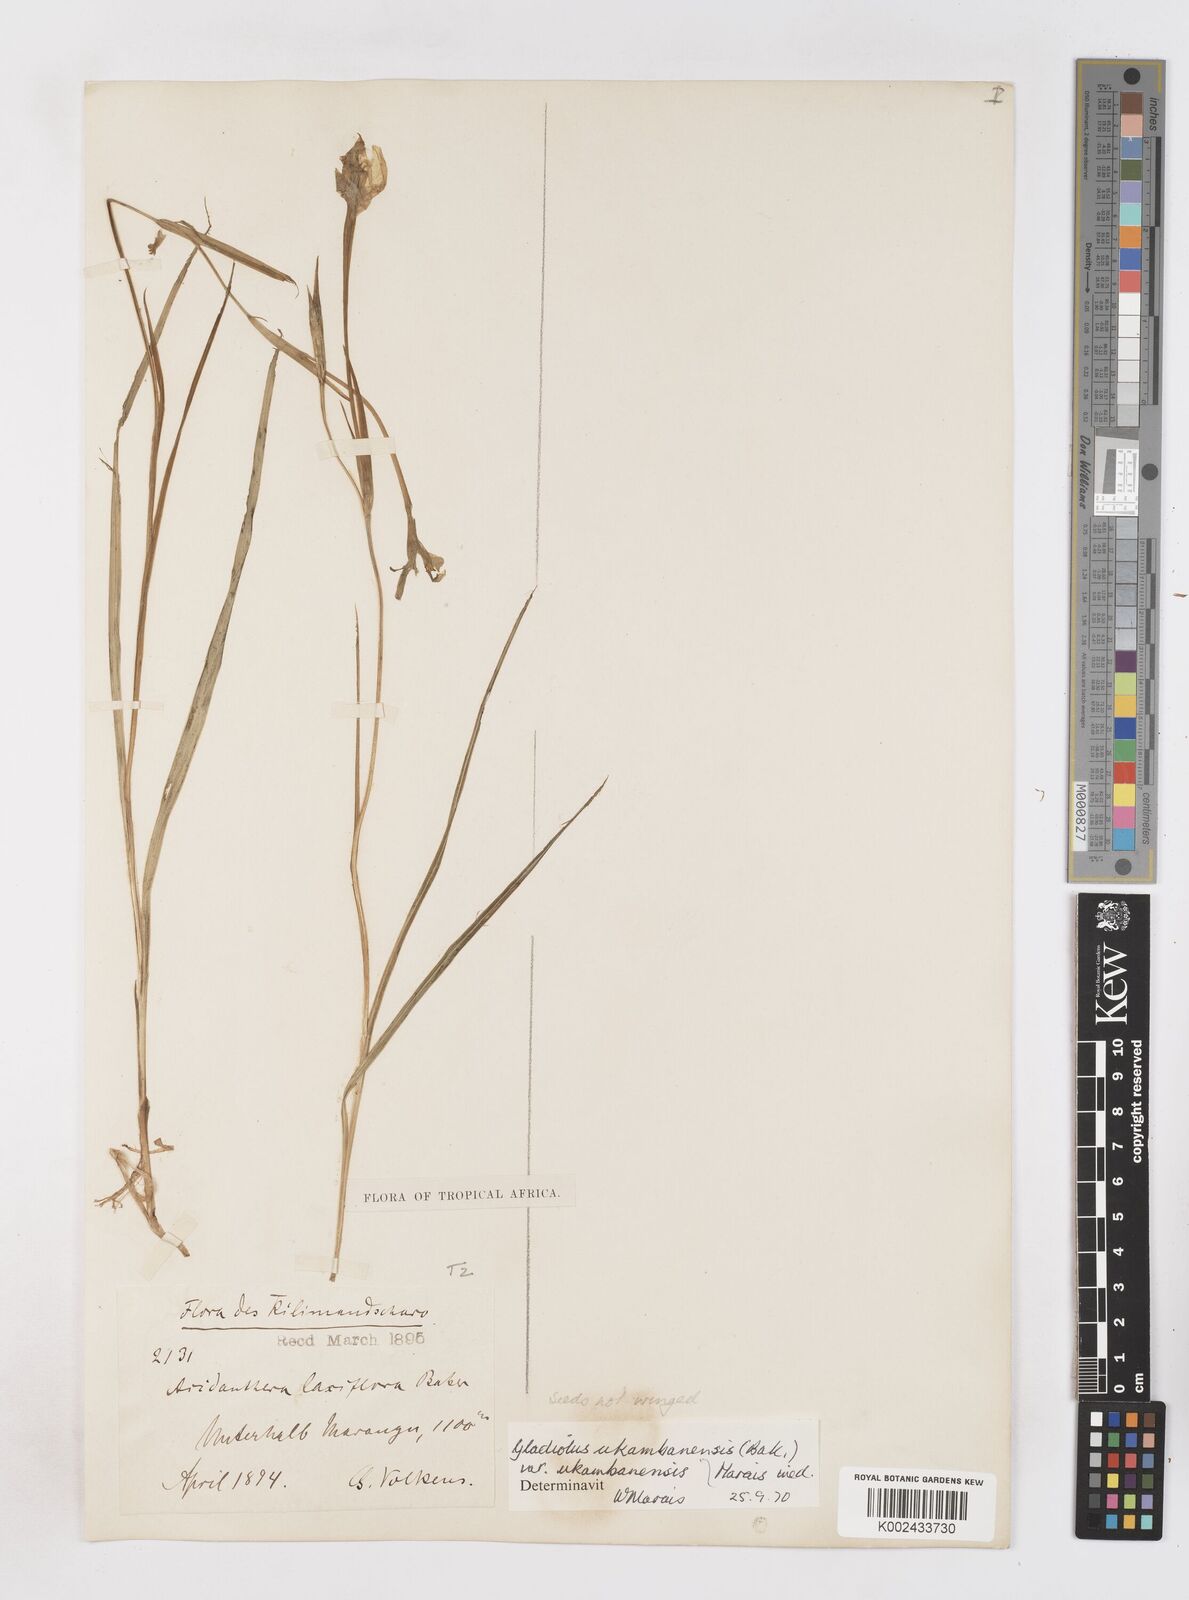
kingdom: Plantae
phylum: Tracheophyta
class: Liliopsida
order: Asparagales
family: Iridaceae
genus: Gladiolus
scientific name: Gladiolus candidus
